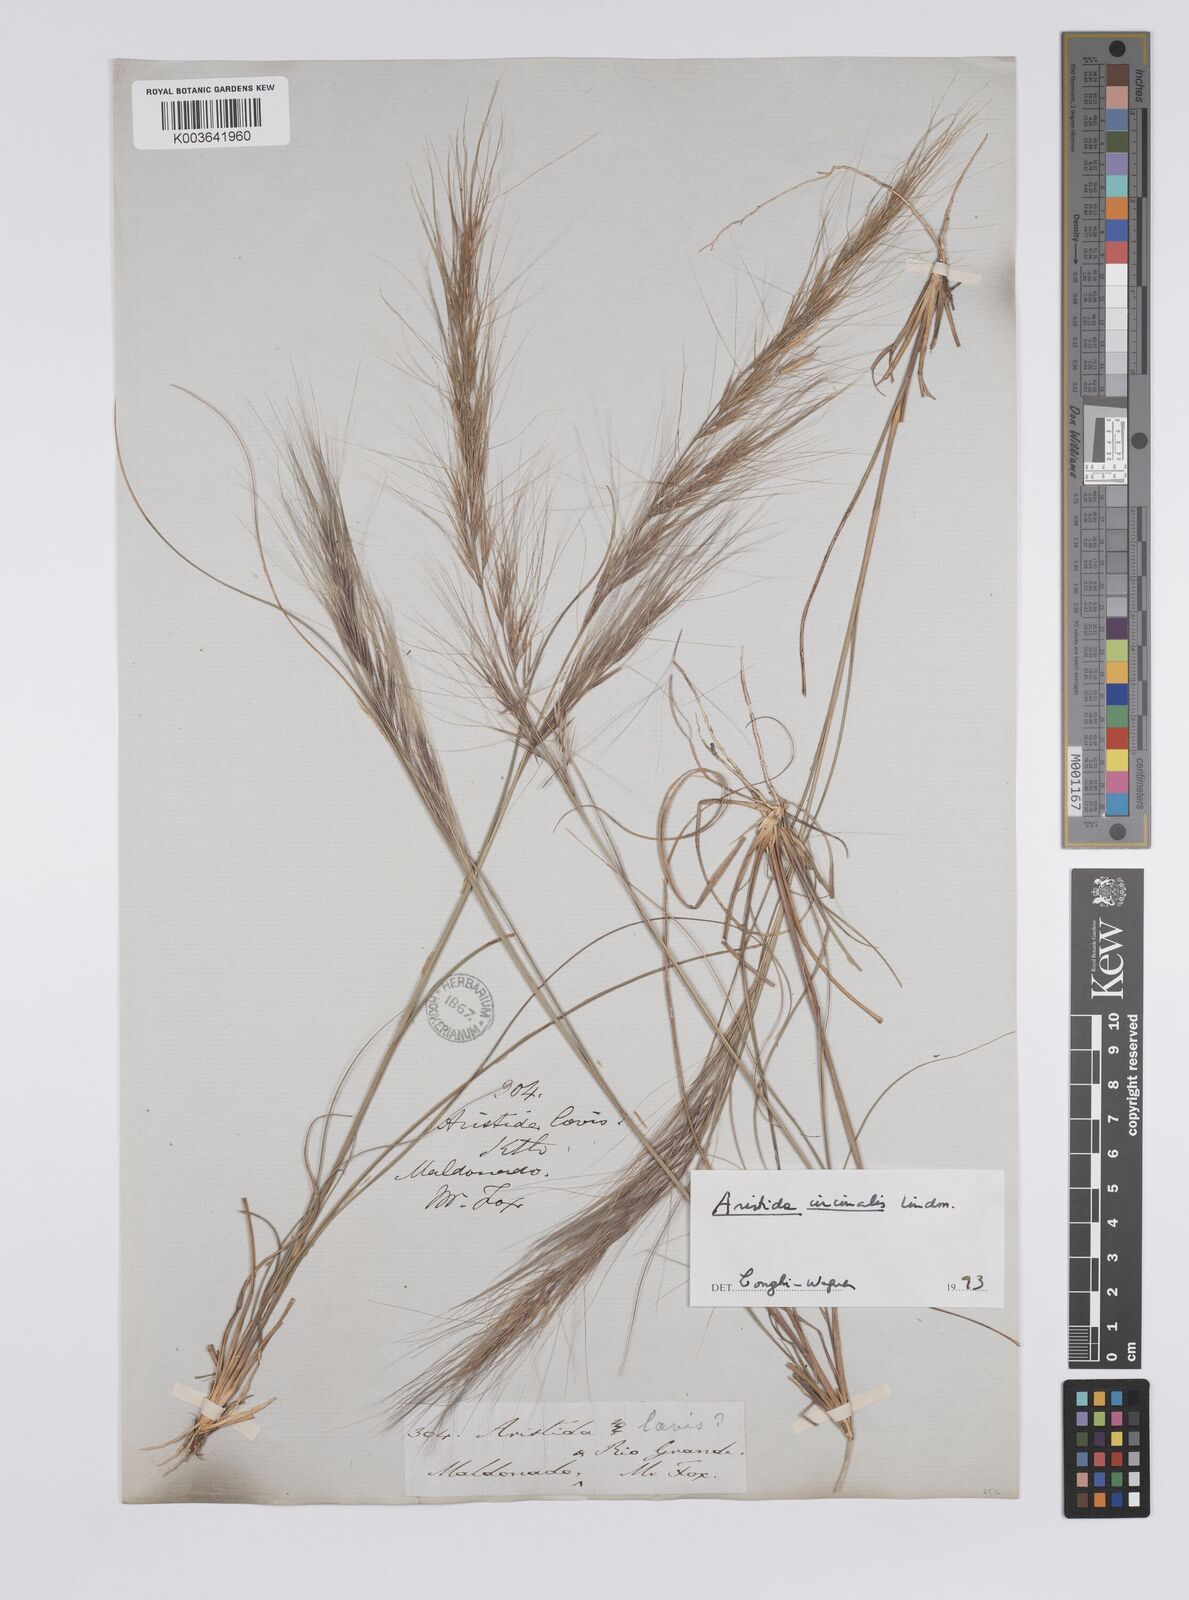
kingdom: Plantae
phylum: Tracheophyta
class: Liliopsida
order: Poales
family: Poaceae
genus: Aristida
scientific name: Aristida circinalis
